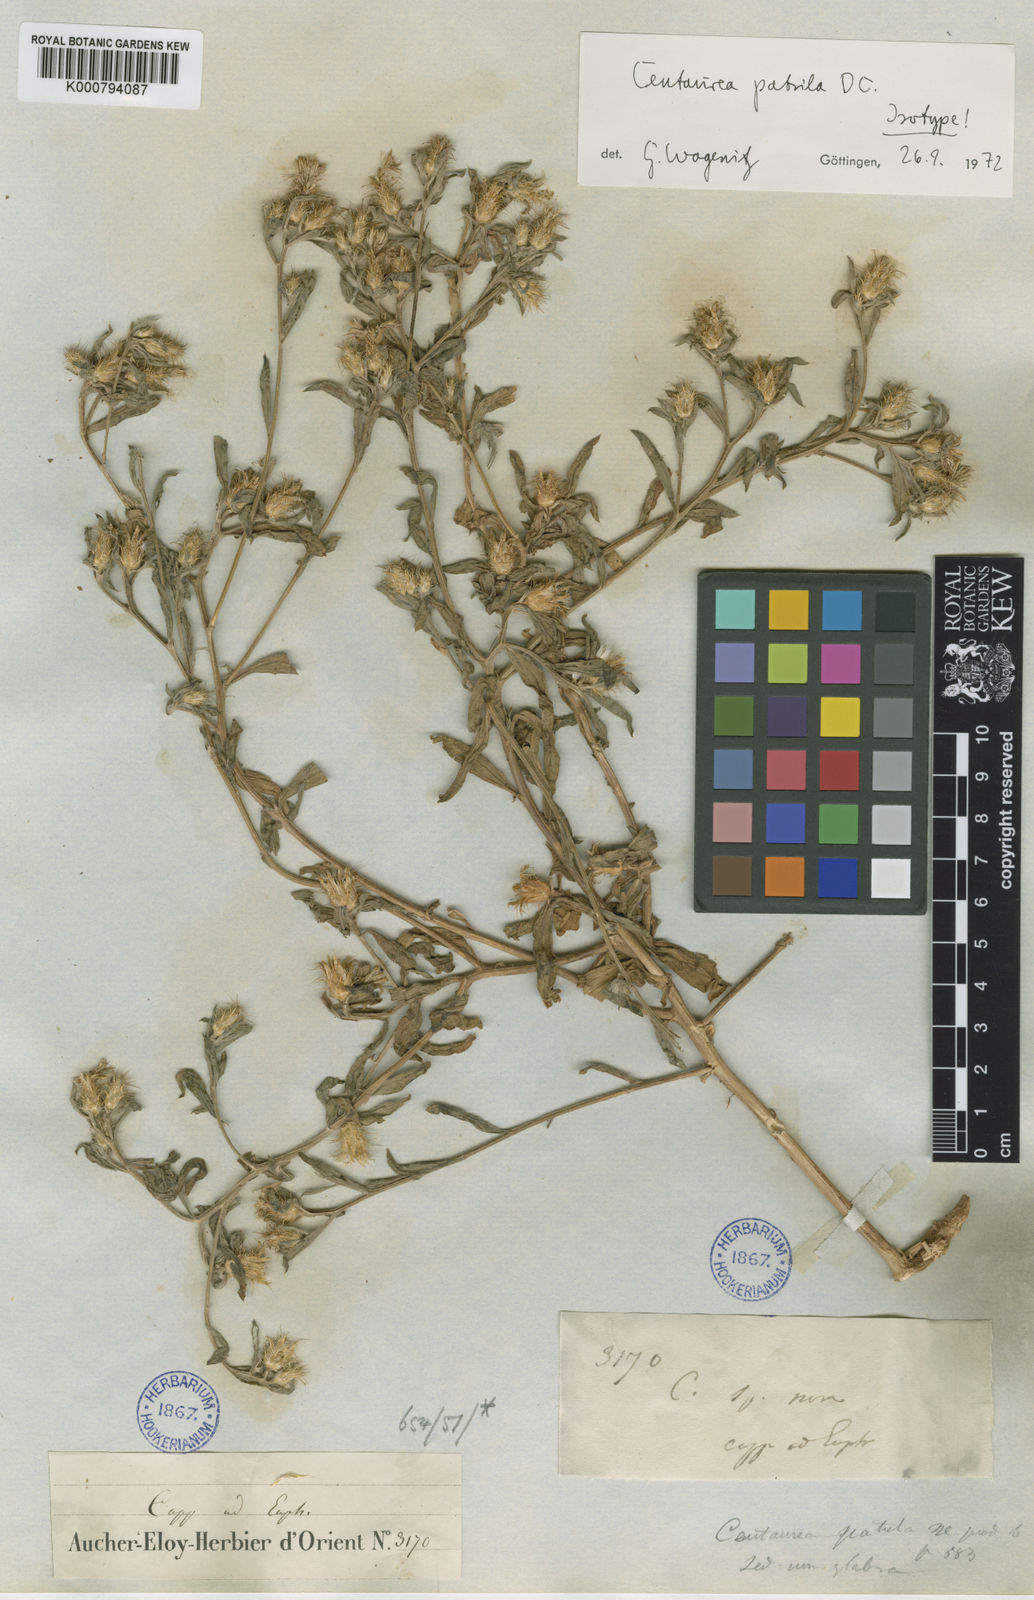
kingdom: Plantae
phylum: Tracheophyta
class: Magnoliopsida
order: Asterales
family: Asteraceae
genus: Centaurea
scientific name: Centaurea
